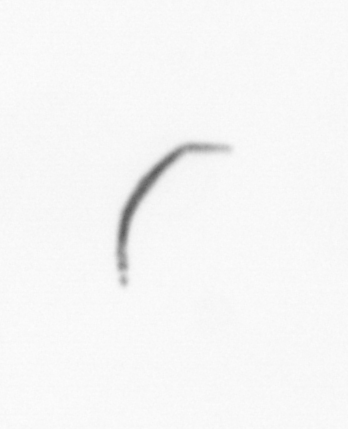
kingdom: Chromista
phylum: Ochrophyta
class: Bacillariophyceae
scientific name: Bacillariophyceae
